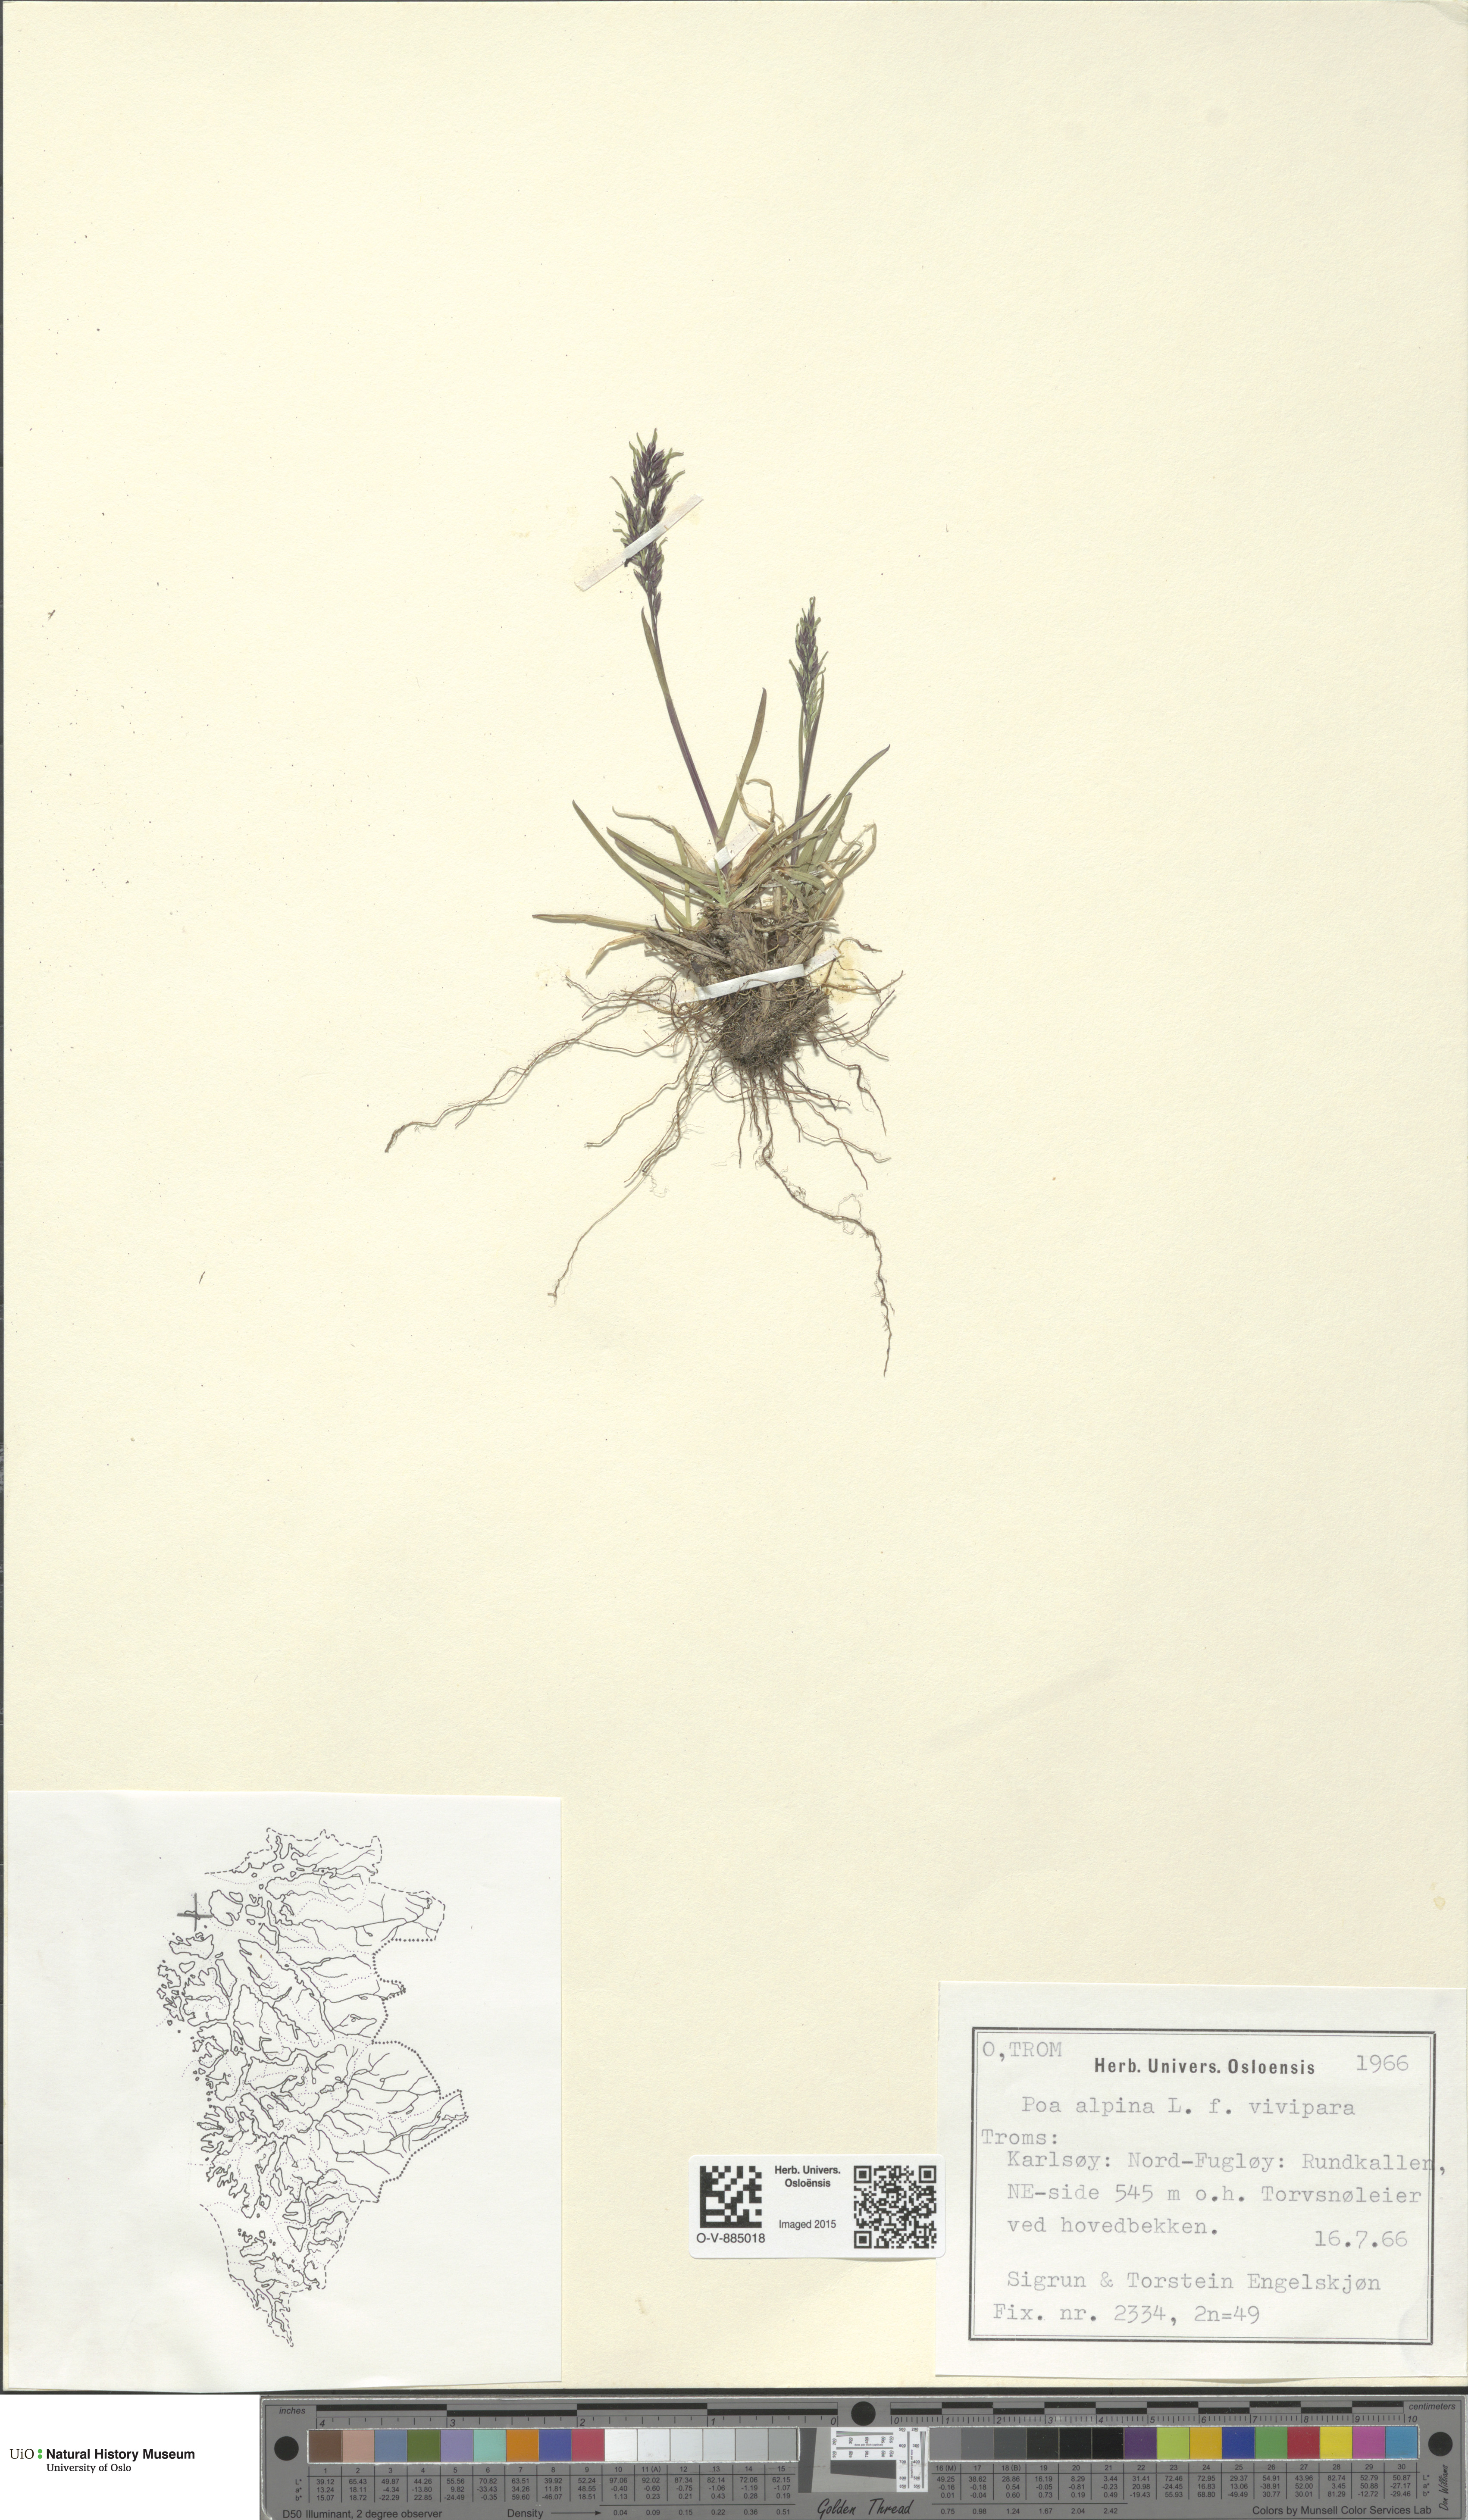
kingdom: Plantae
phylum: Tracheophyta
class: Liliopsida
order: Poales
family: Poaceae
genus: Poa
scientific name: Poa alpina
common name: Alpine bluegrass
